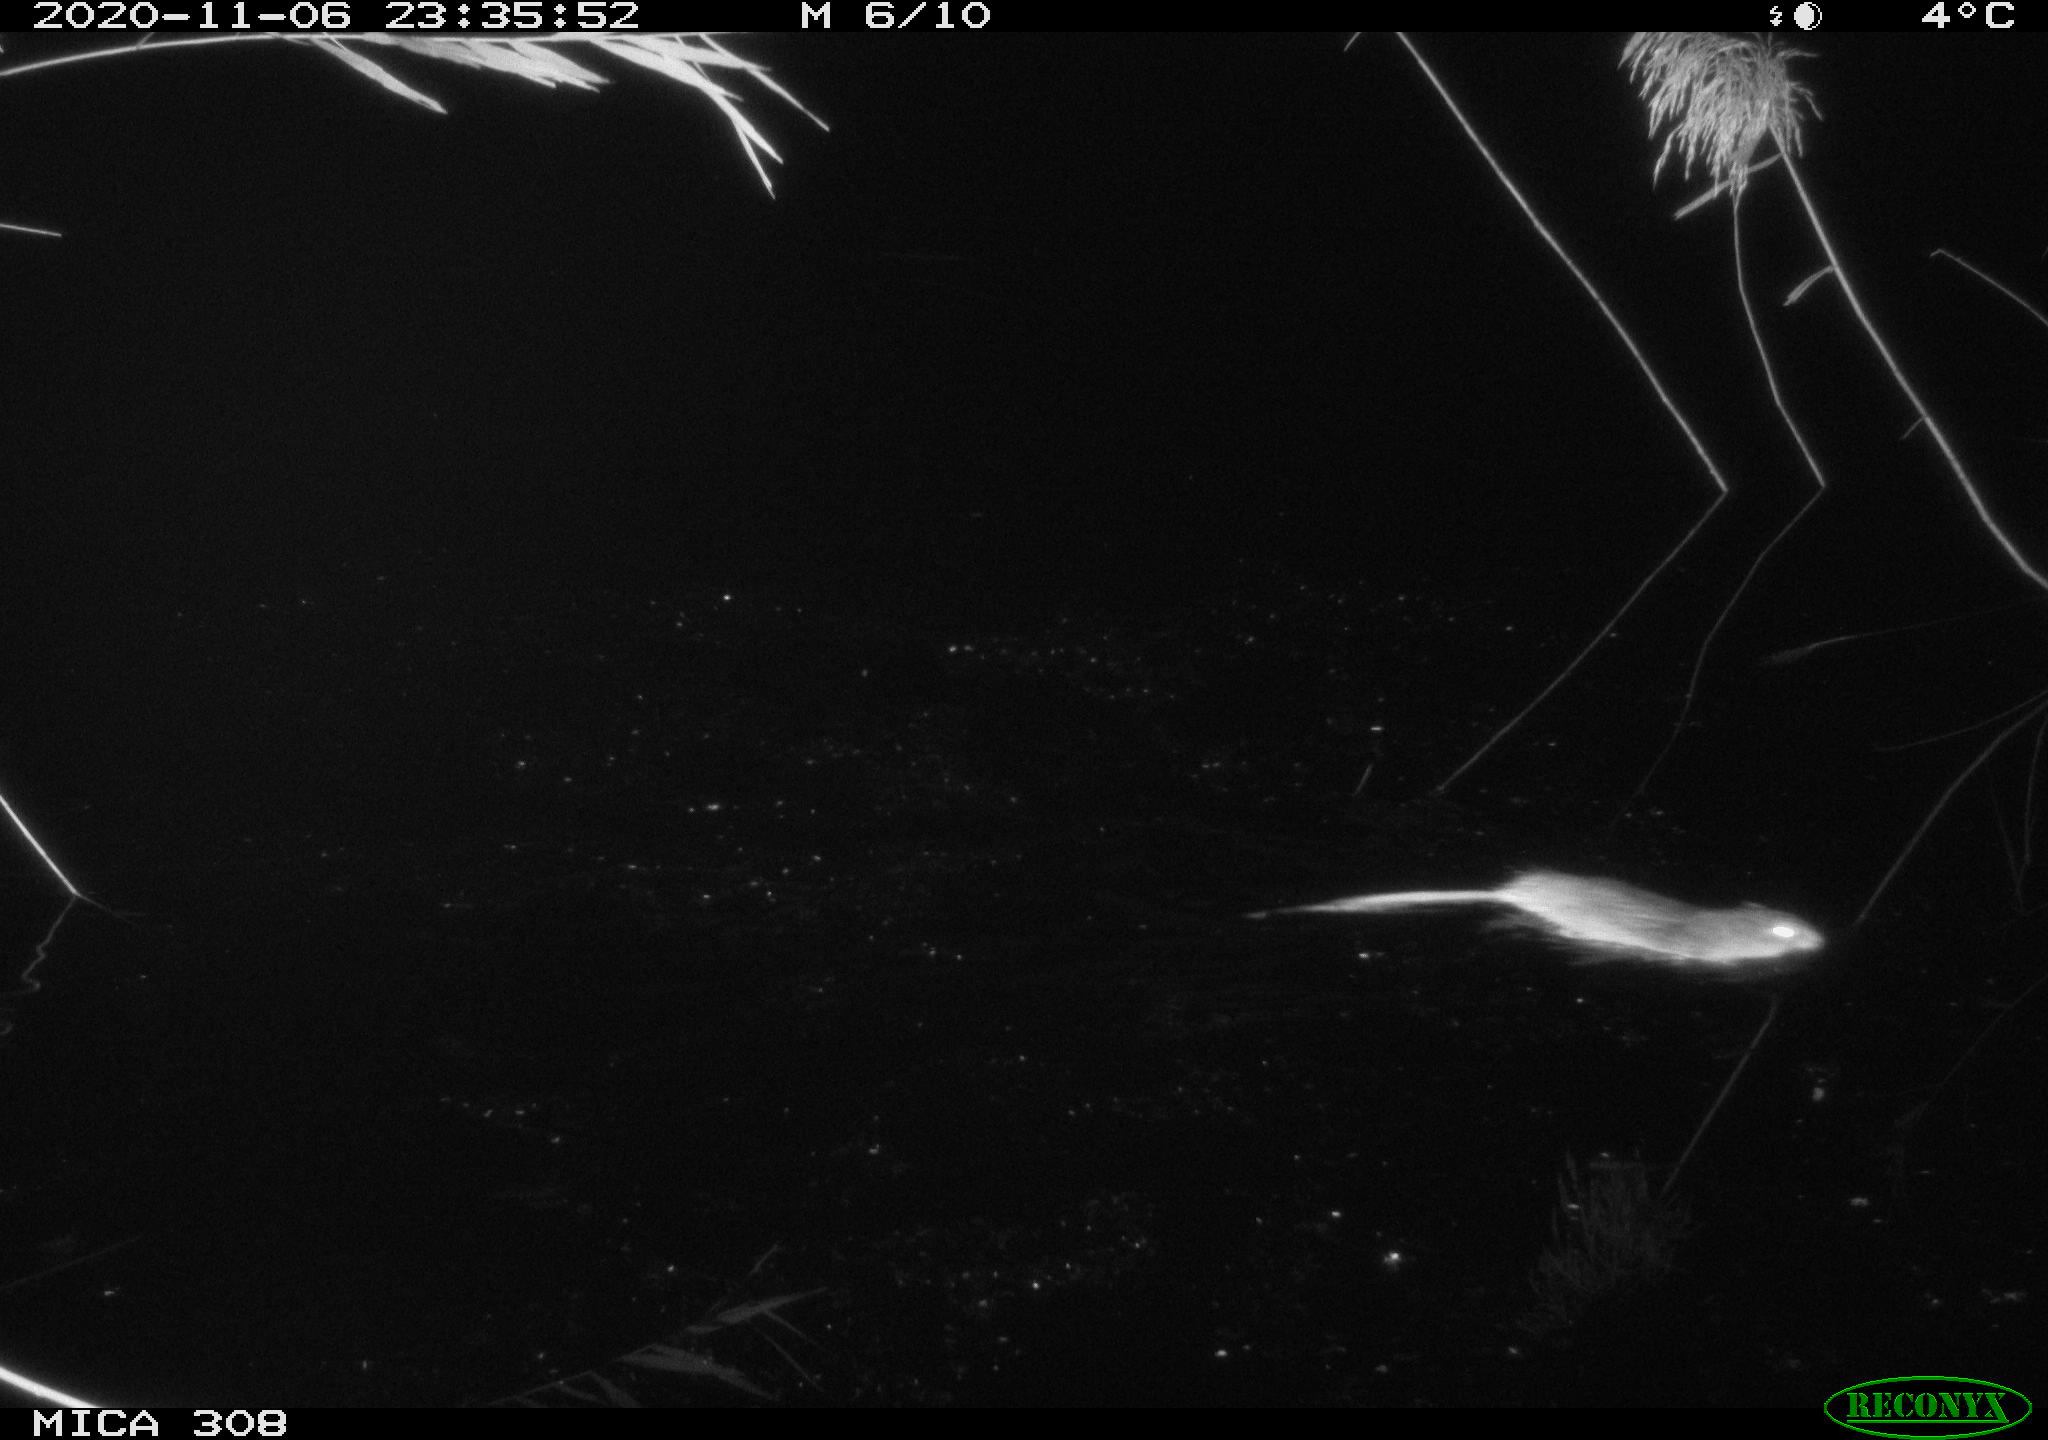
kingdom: Animalia
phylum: Chordata
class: Mammalia
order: Rodentia
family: Muridae
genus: Rattus
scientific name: Rattus norvegicus
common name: Brown rat
